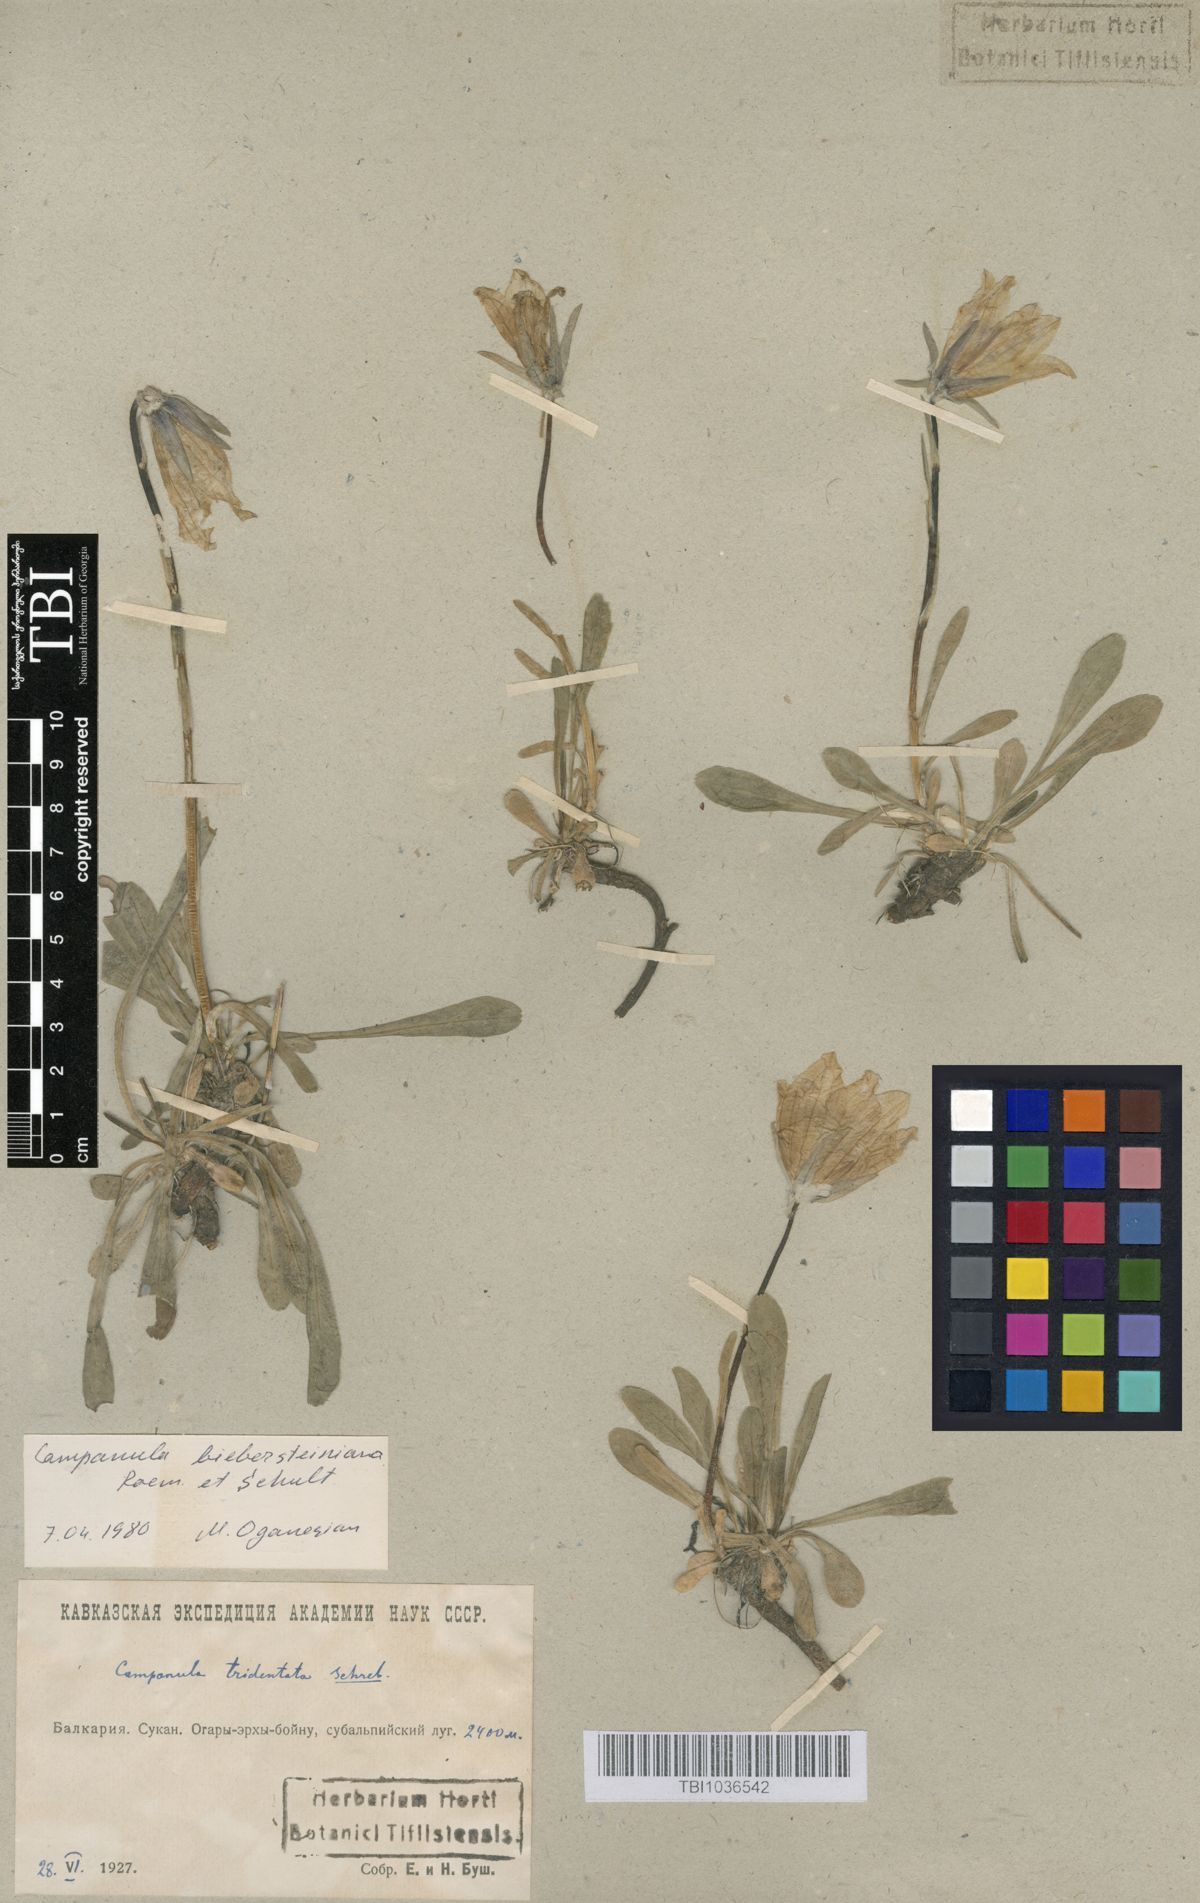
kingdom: Plantae
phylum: Tracheophyta
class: Magnoliopsida
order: Asterales
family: Campanulaceae
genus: Campanula
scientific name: Campanula tridentata
